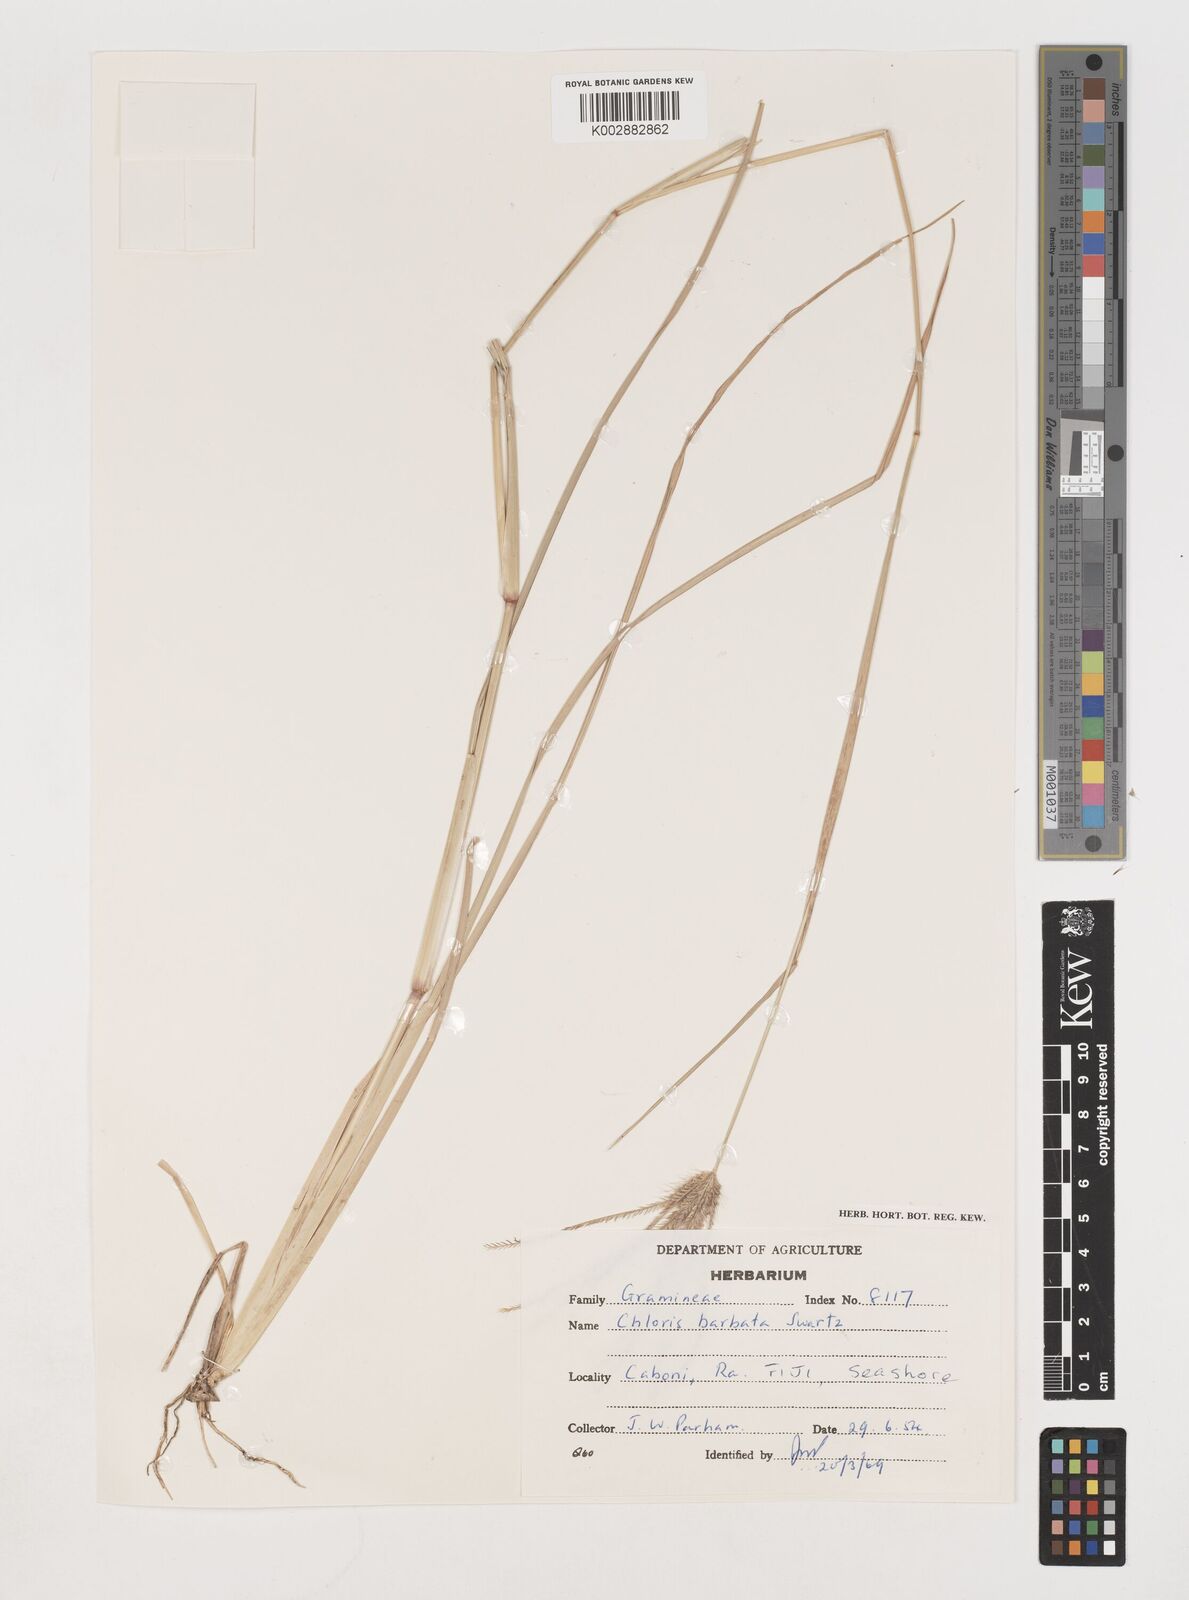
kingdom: Plantae
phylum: Tracheophyta
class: Liliopsida
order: Poales
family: Poaceae
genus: Chloris
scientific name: Chloris barbata
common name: Swollen fingergrass
